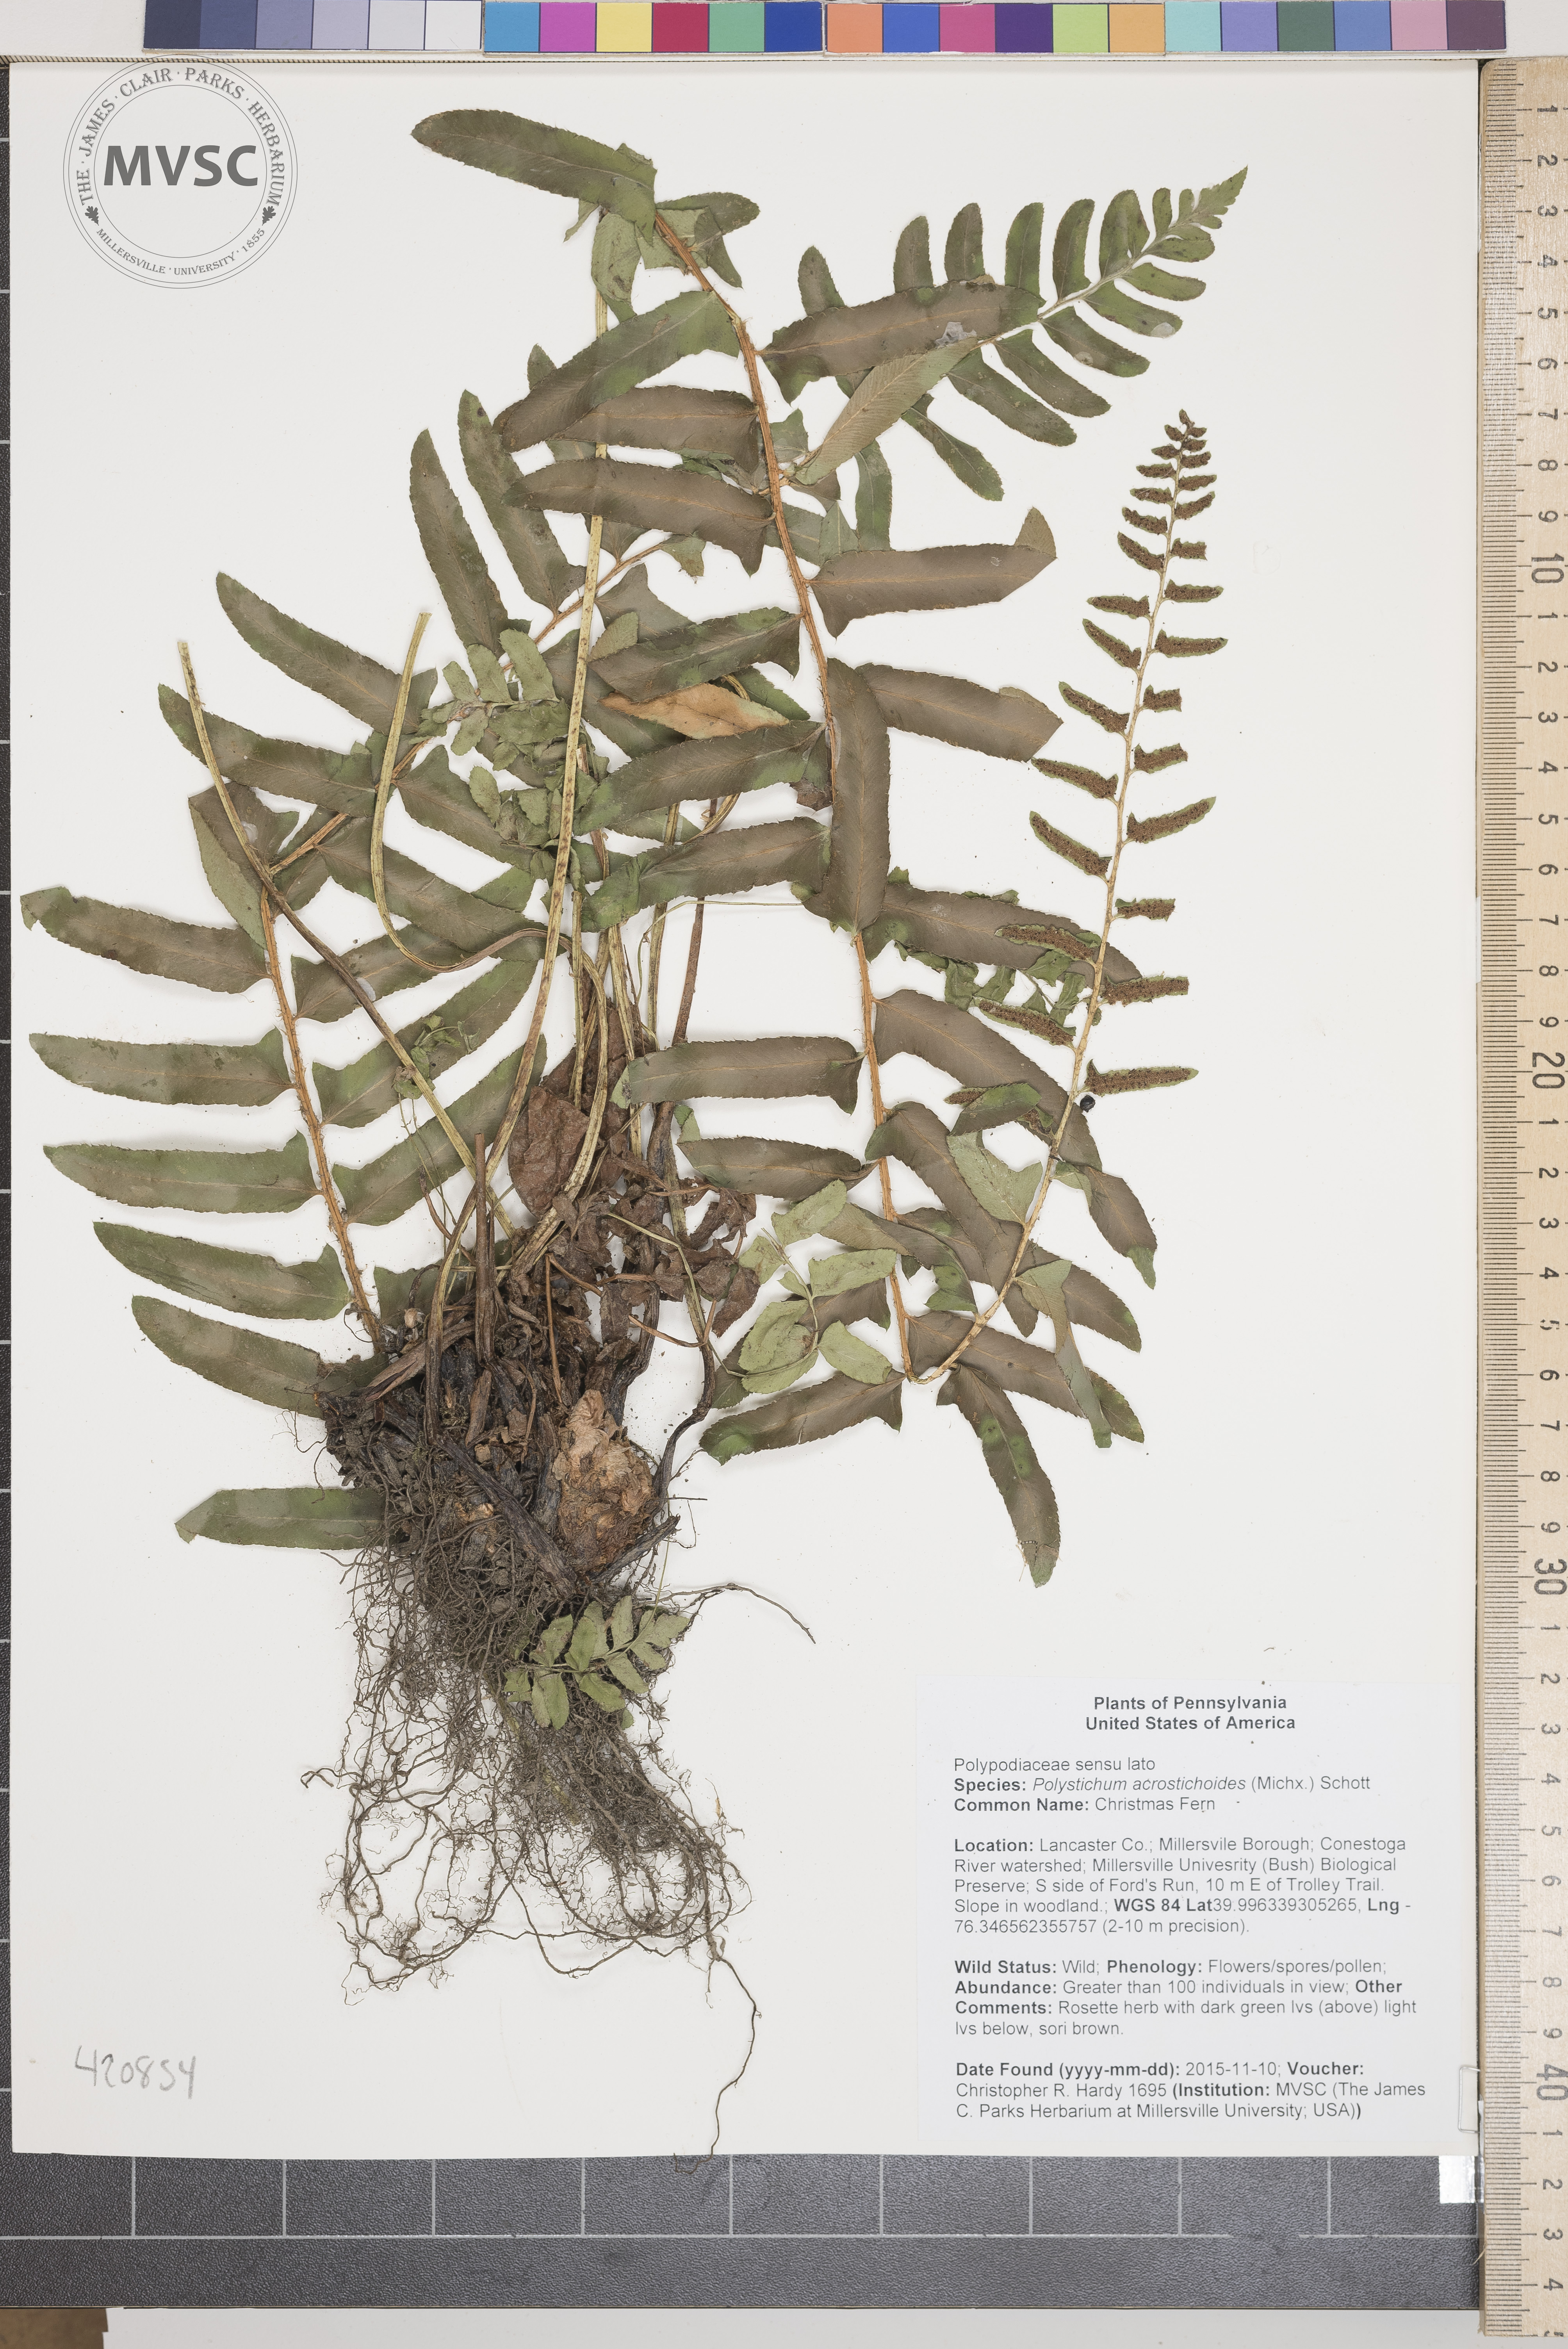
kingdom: Plantae
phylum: Tracheophyta
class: Polypodiopsida
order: Polypodiales
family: Dryopteridaceae
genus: Polystichum
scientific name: Polystichum acrostichoides
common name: Christmas Fern
